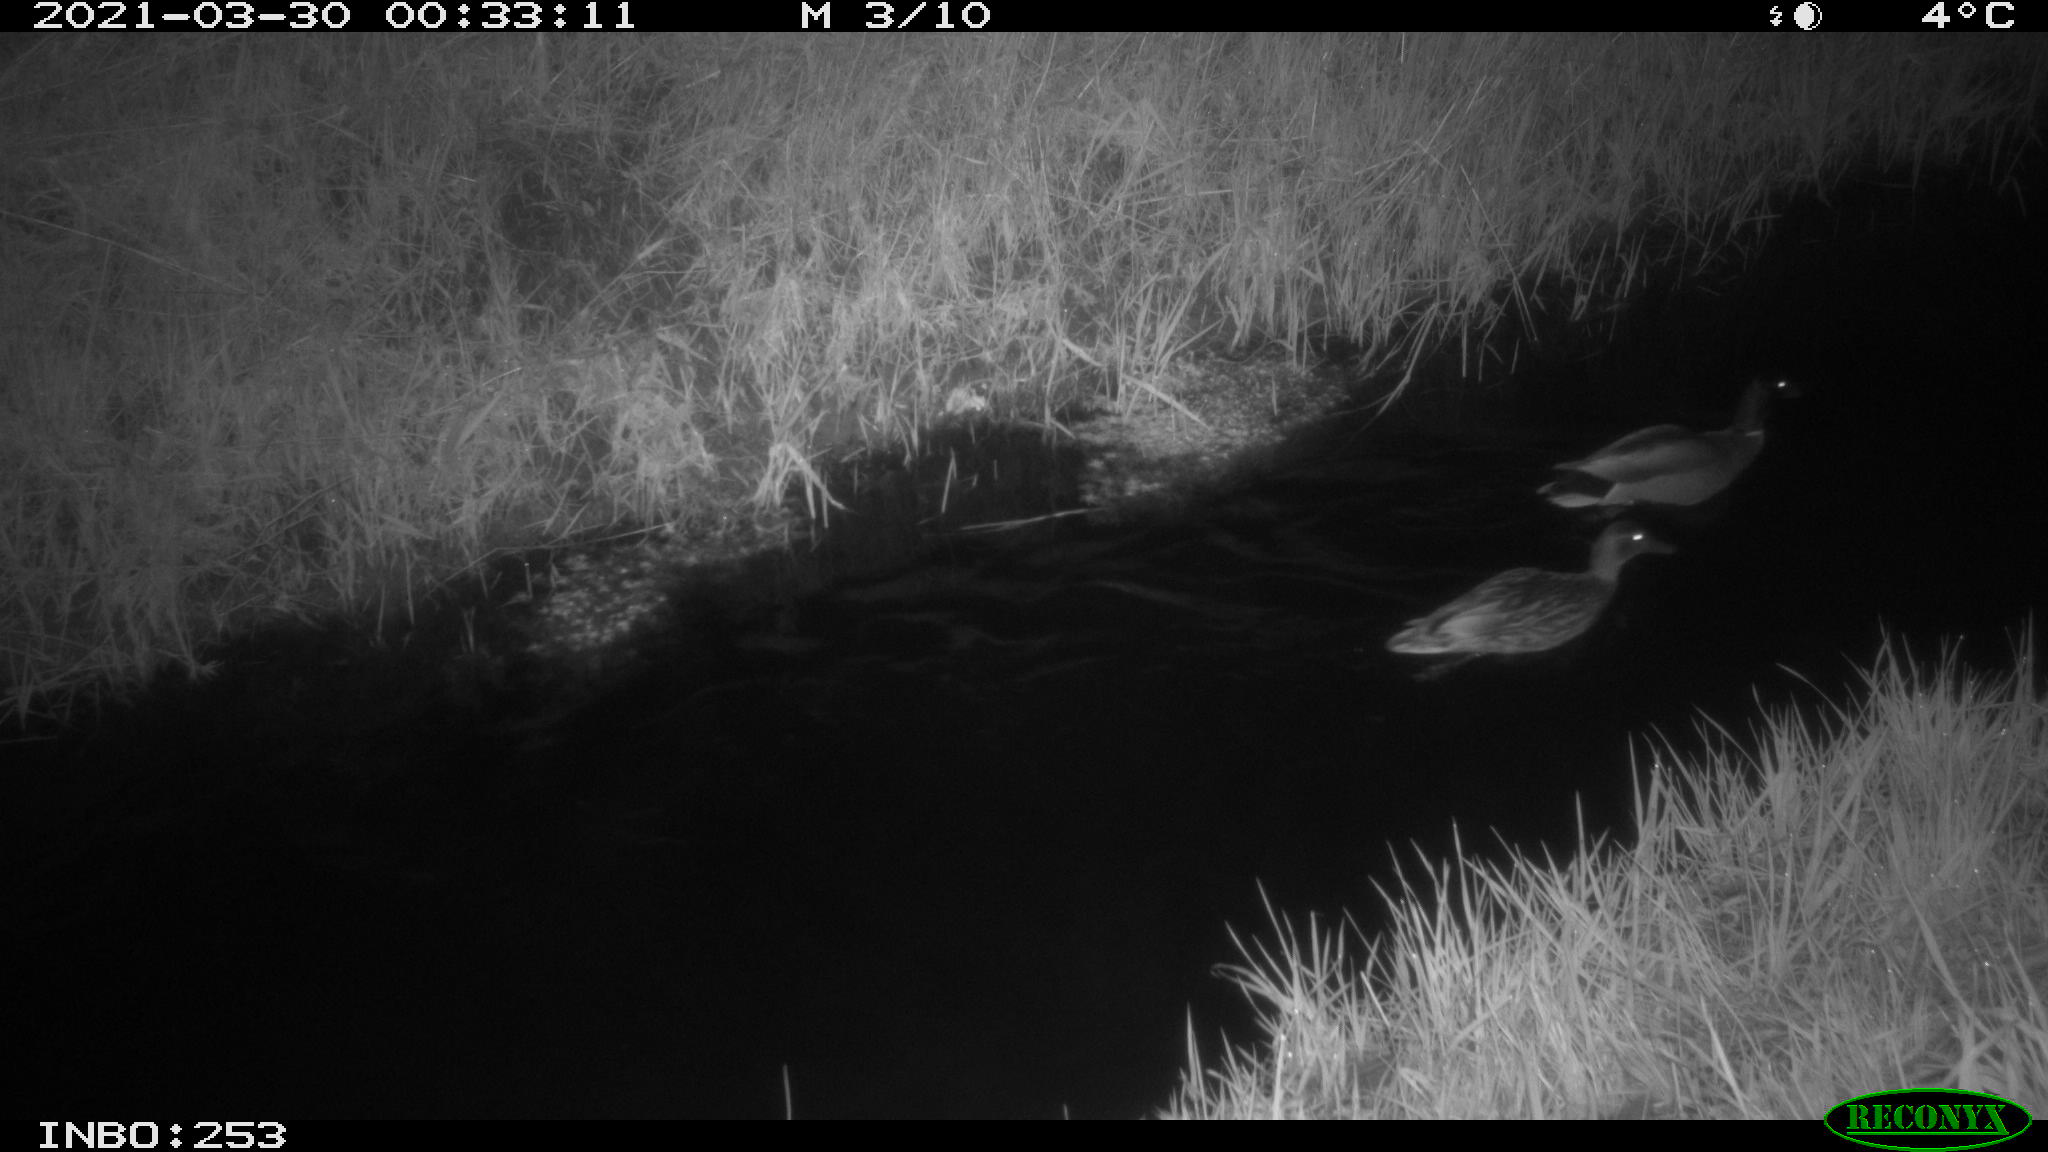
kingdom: Animalia
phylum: Chordata
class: Aves
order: Anseriformes
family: Anatidae
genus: Anas
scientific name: Anas platyrhynchos
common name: Mallard
